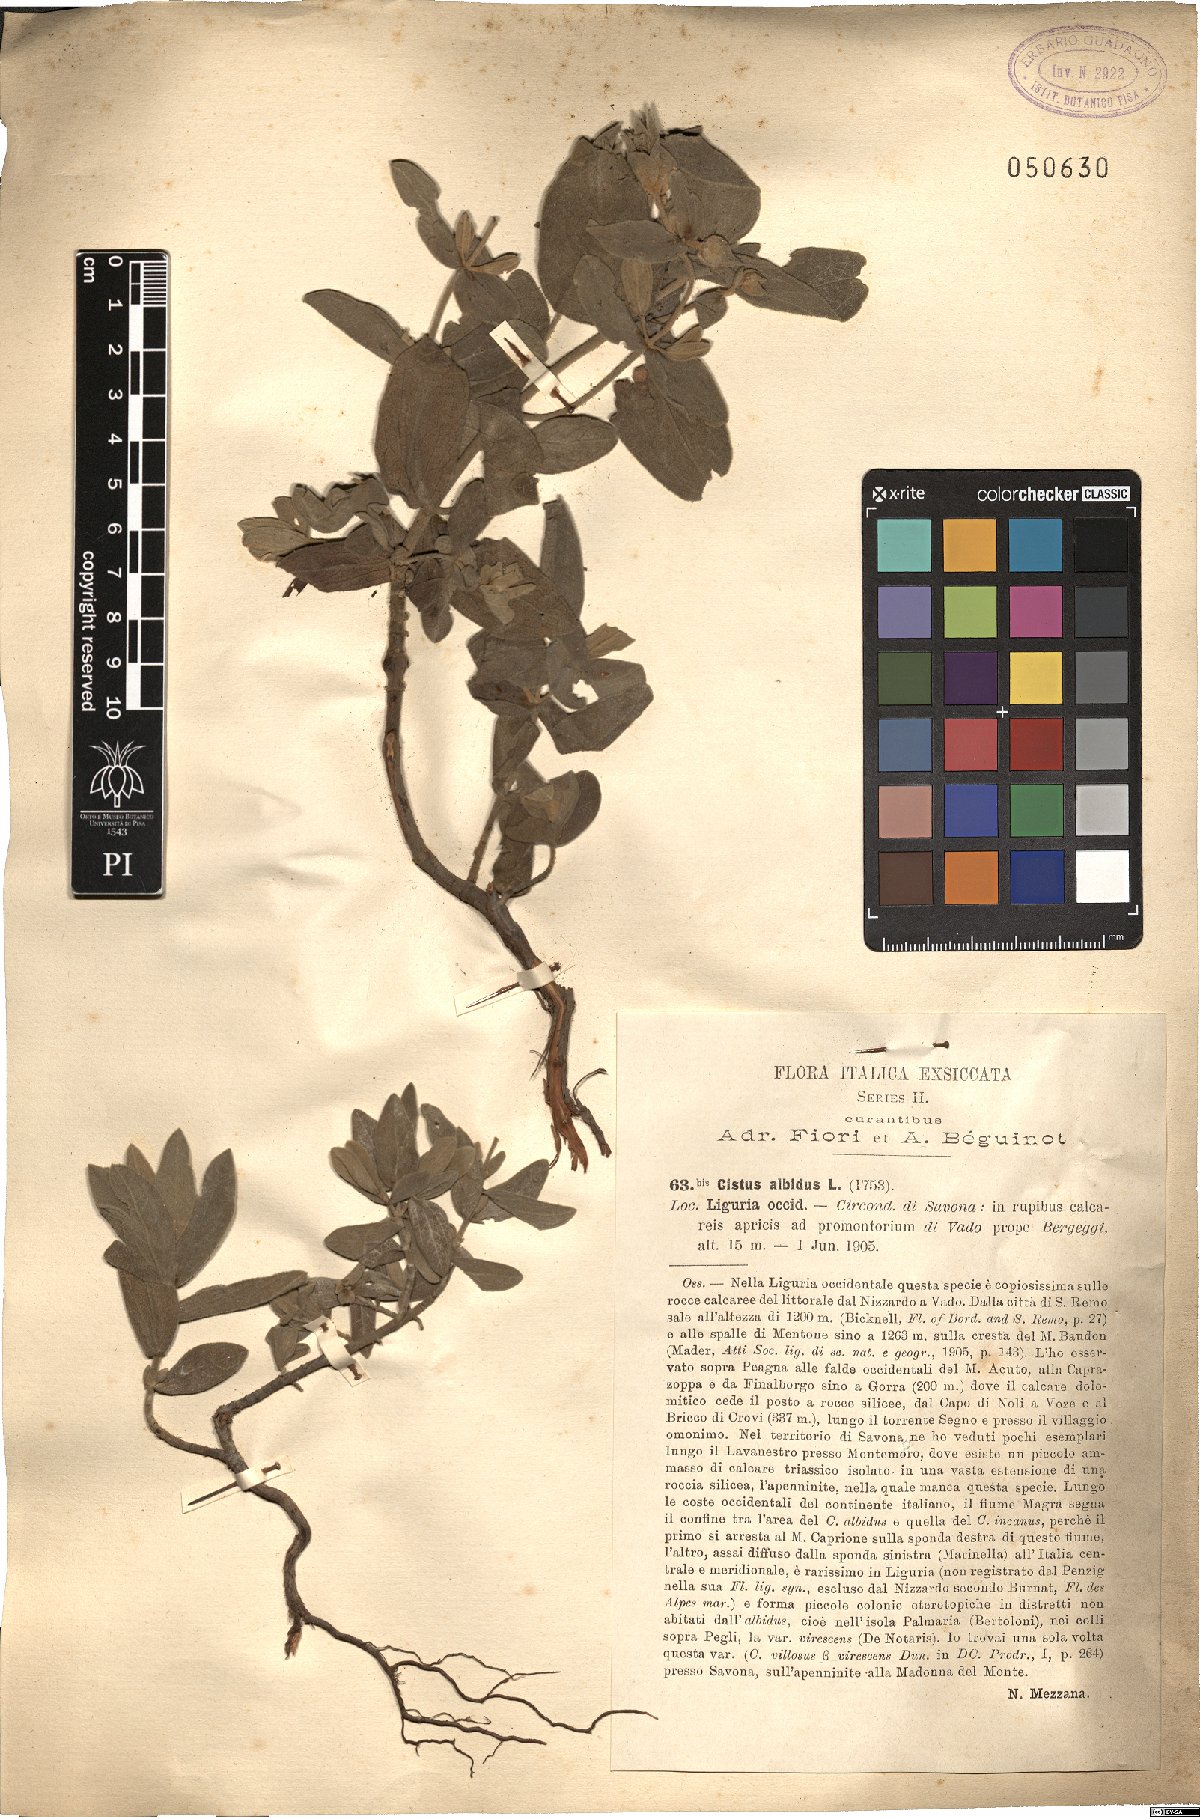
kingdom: Plantae
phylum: Tracheophyta
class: Magnoliopsida
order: Malvales
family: Cistaceae
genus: Cistus
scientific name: Cistus albidus
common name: White-leaf rock-rose
